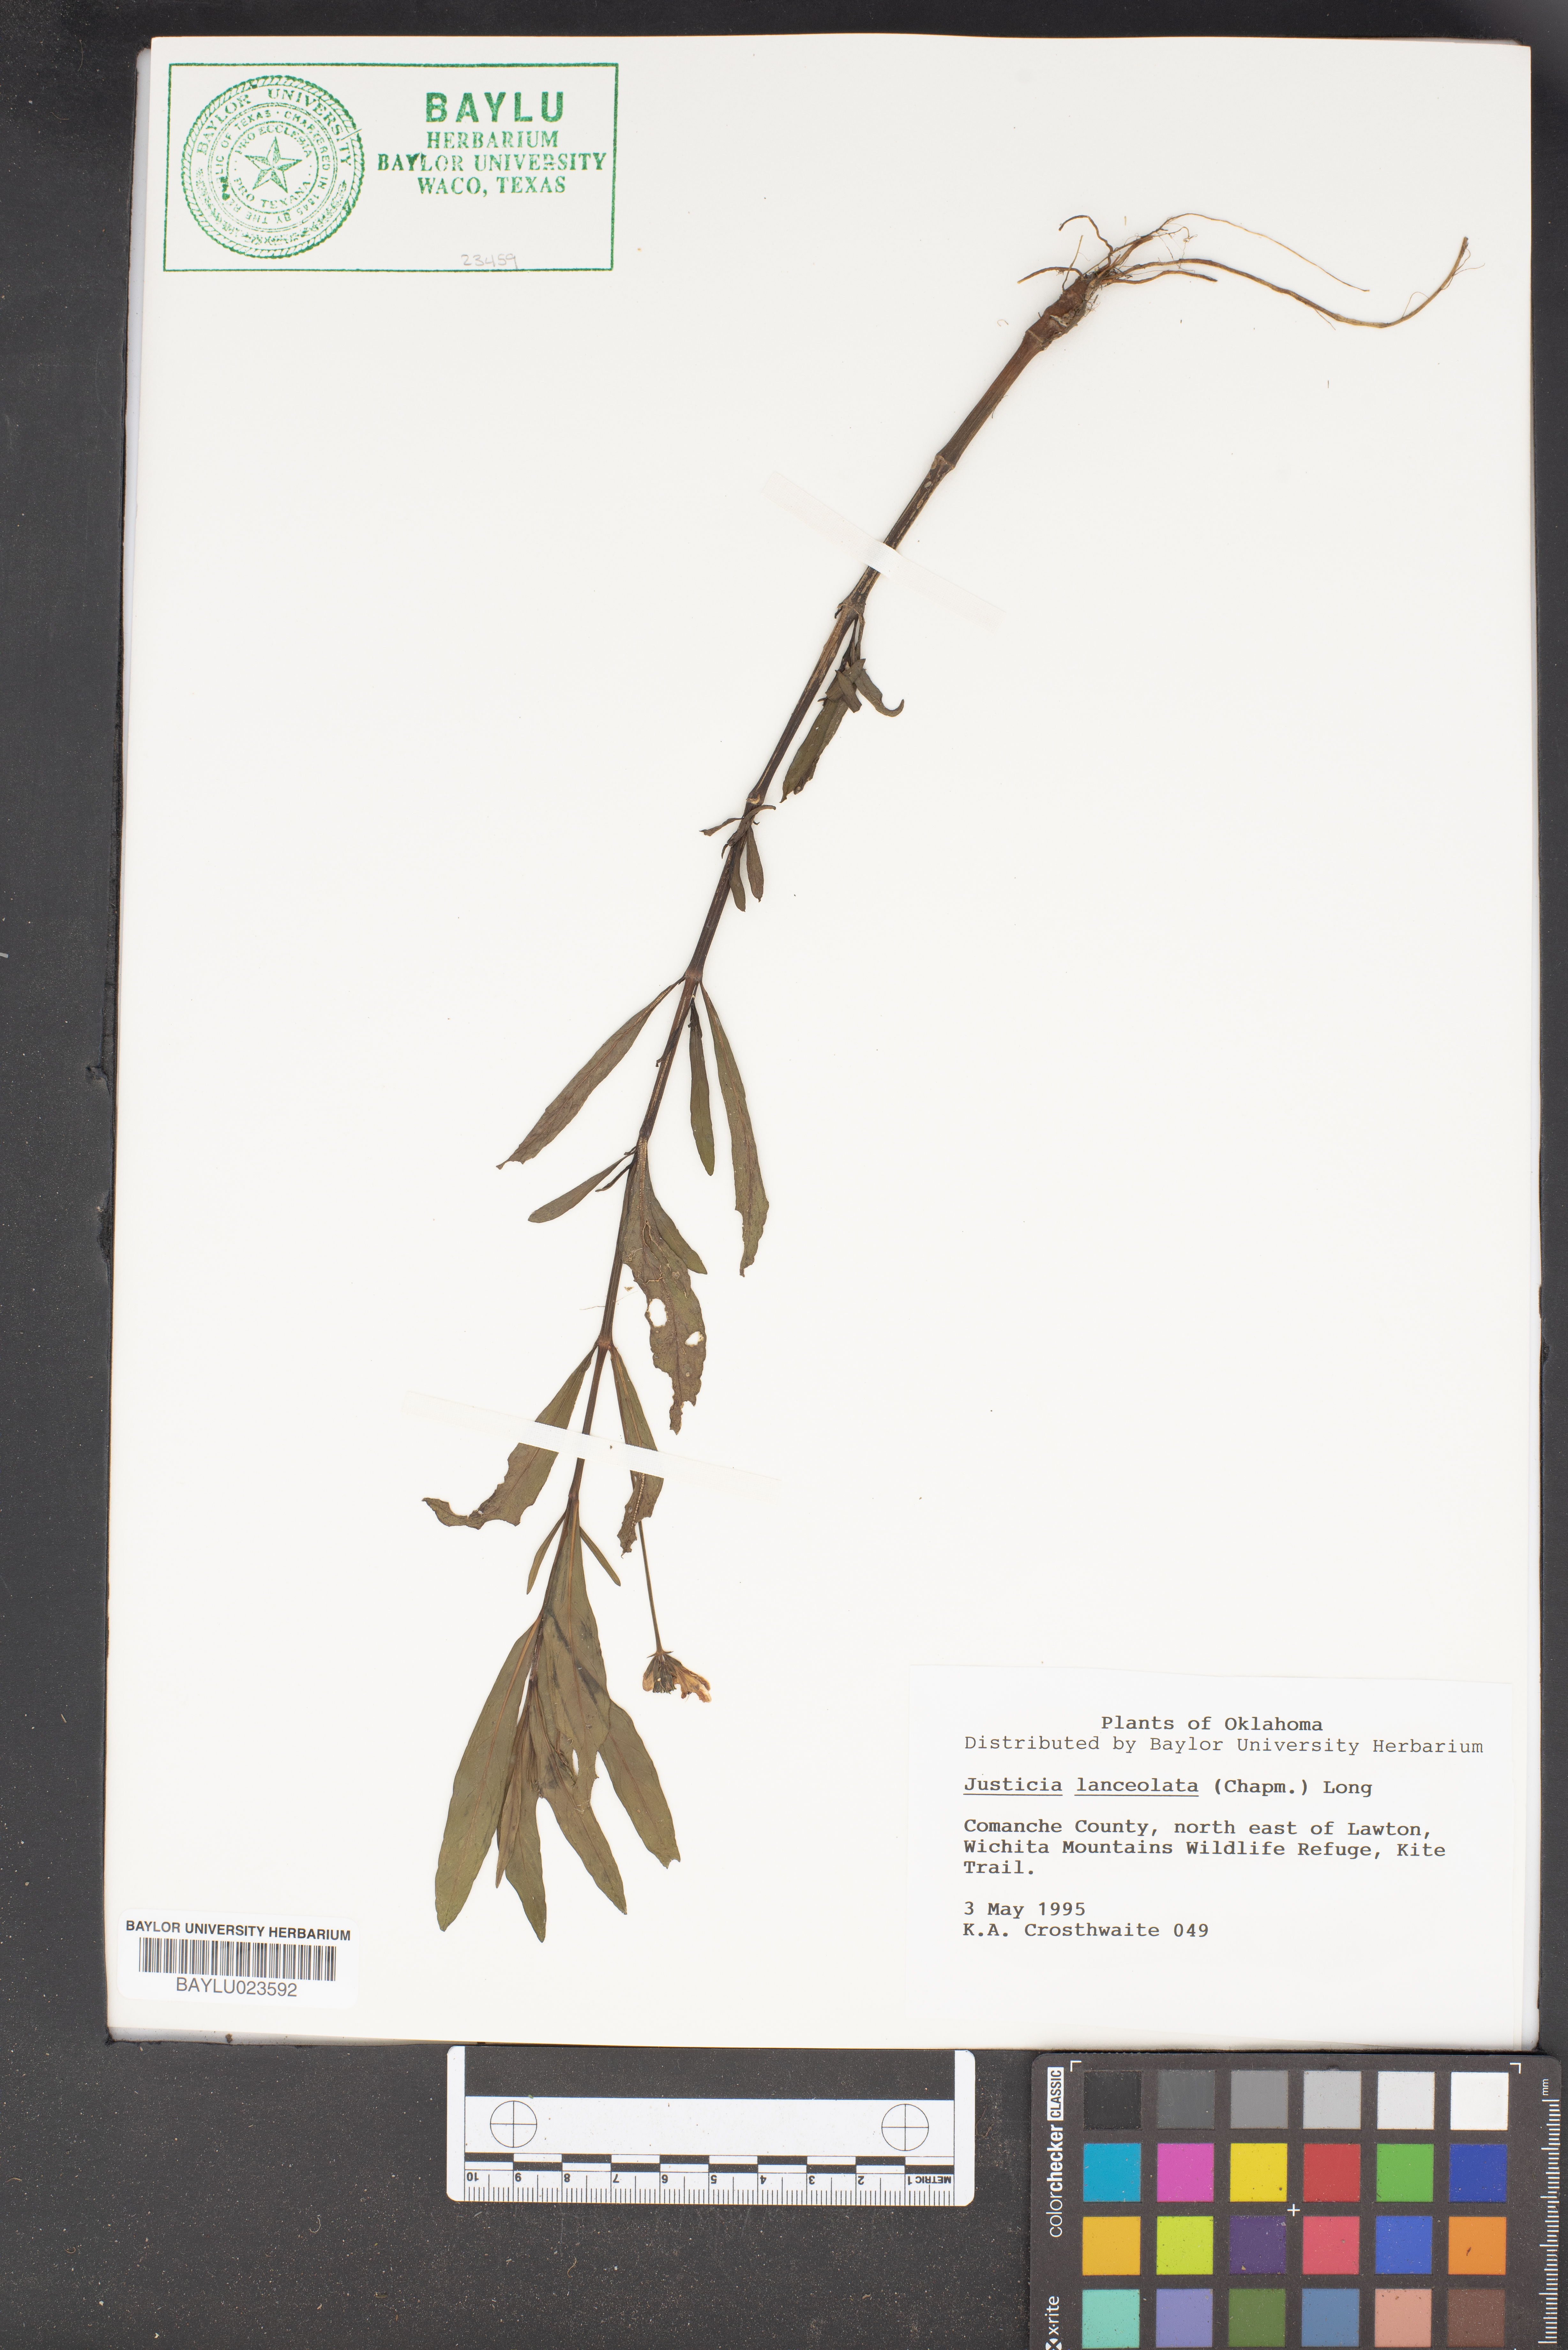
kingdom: Plantae
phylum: Tracheophyta
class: Magnoliopsida
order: Lamiales
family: Acanthaceae
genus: Justicia
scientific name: Justicia lanceolata
